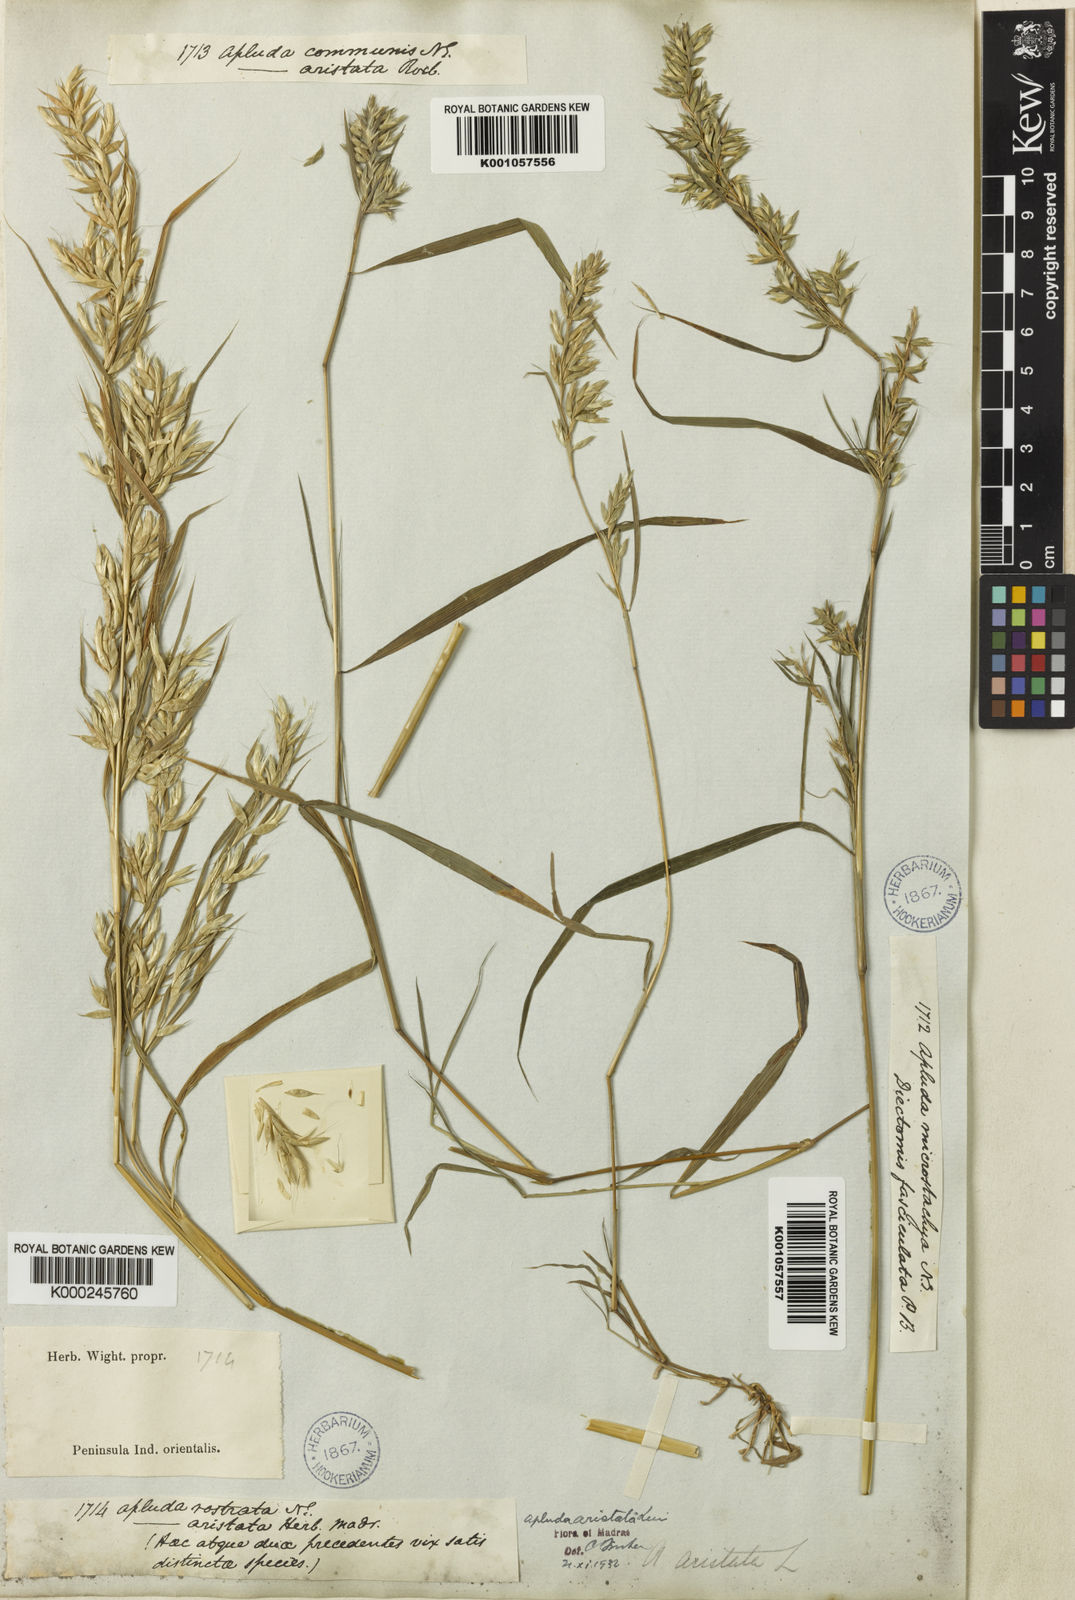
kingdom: Plantae
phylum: Tracheophyta
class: Liliopsida
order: Poales
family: Poaceae
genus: Apluda
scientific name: Apluda mutica
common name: Mauritian grass
